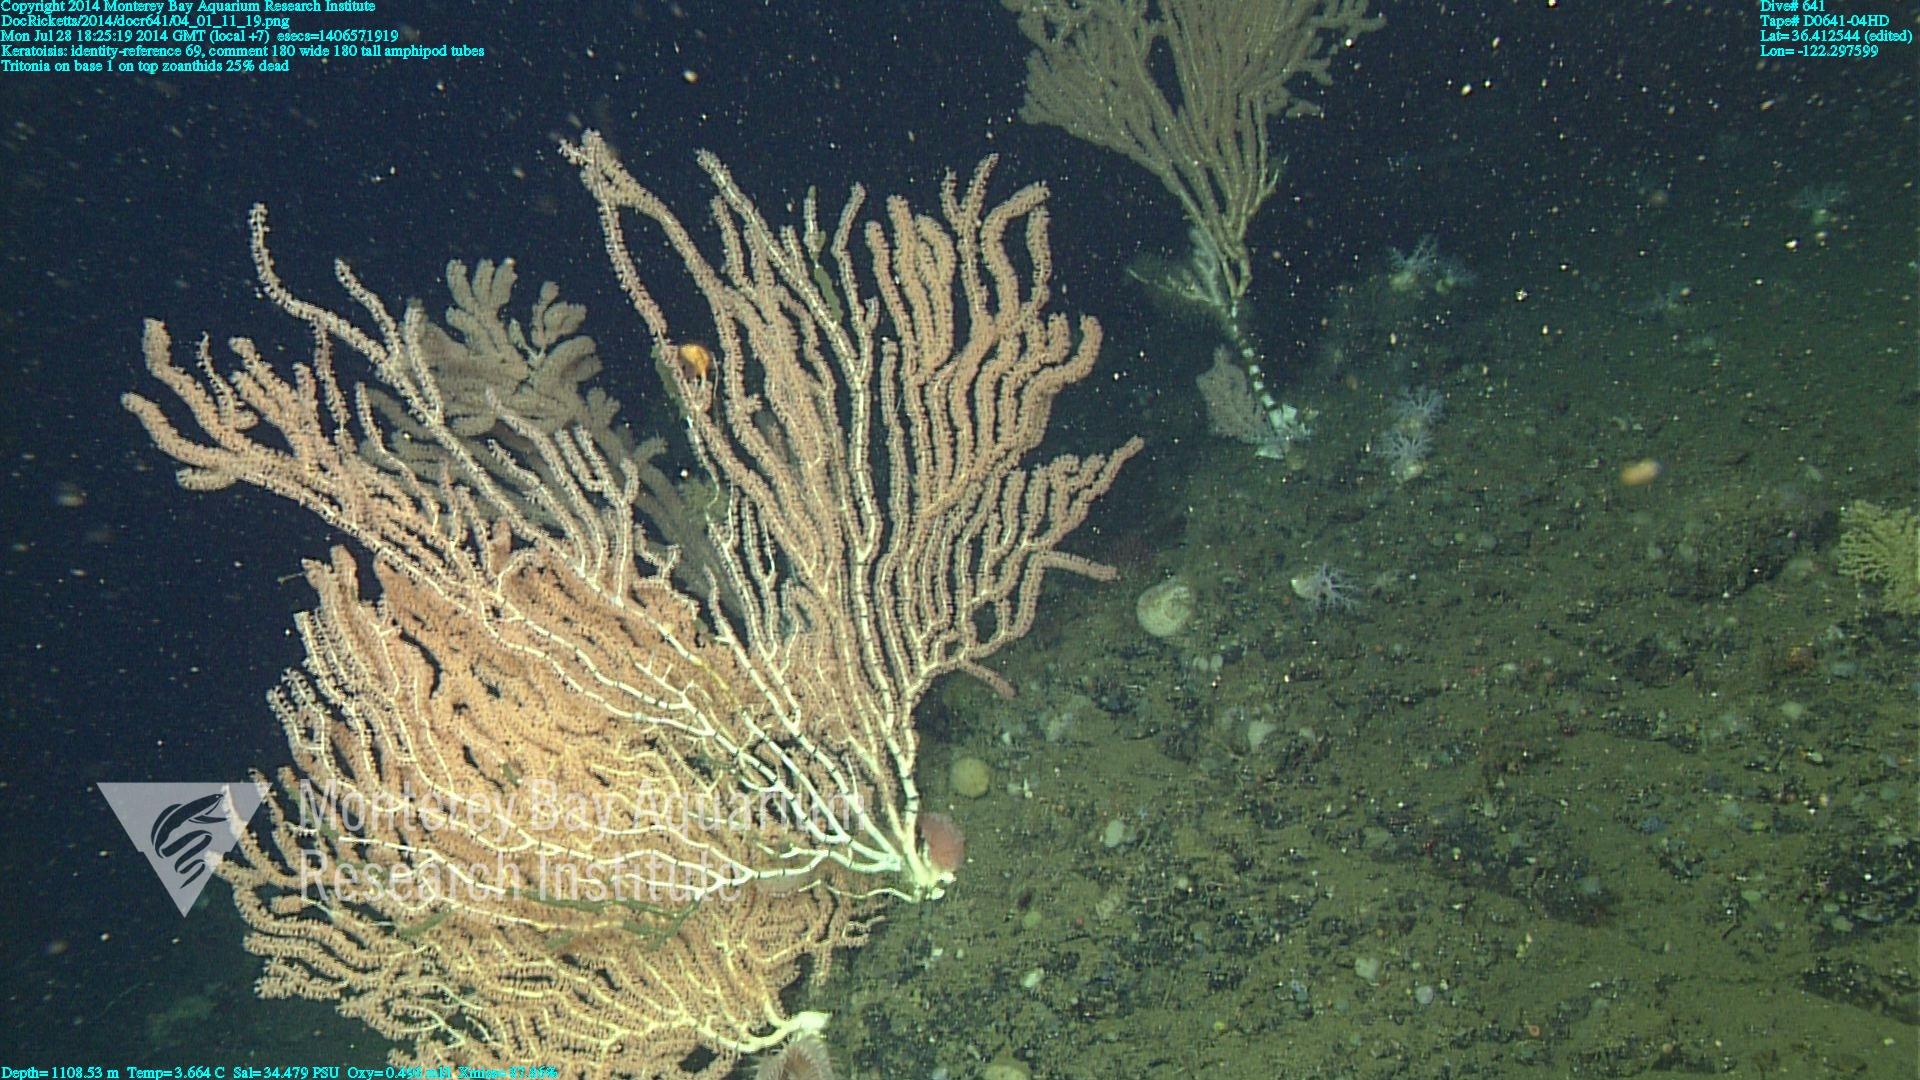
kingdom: Animalia
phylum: Cnidaria
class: Anthozoa
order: Scleralcyonacea
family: Keratoisididae
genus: Keratoisis
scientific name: Keratoisis
